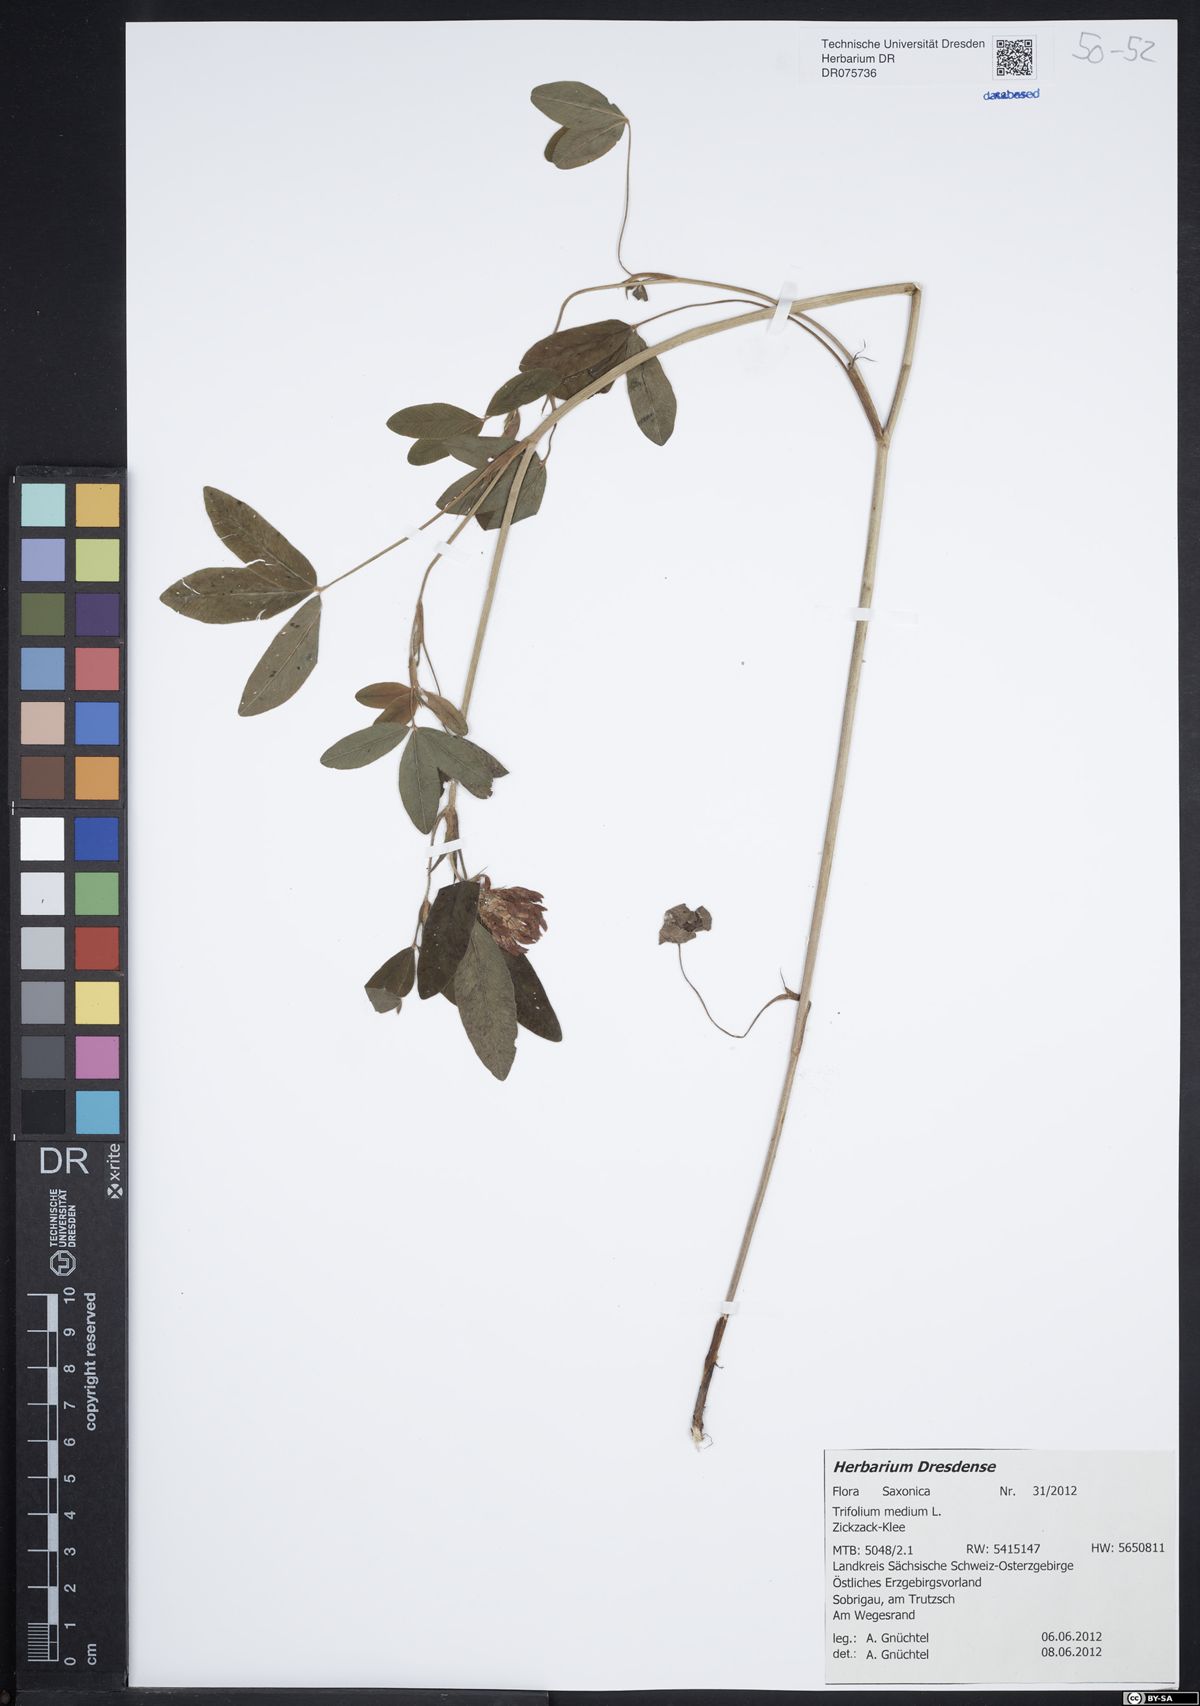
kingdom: Plantae
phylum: Tracheophyta
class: Magnoliopsida
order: Fabales
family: Fabaceae
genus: Trifolium
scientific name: Trifolium medium
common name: Zigzag clover
